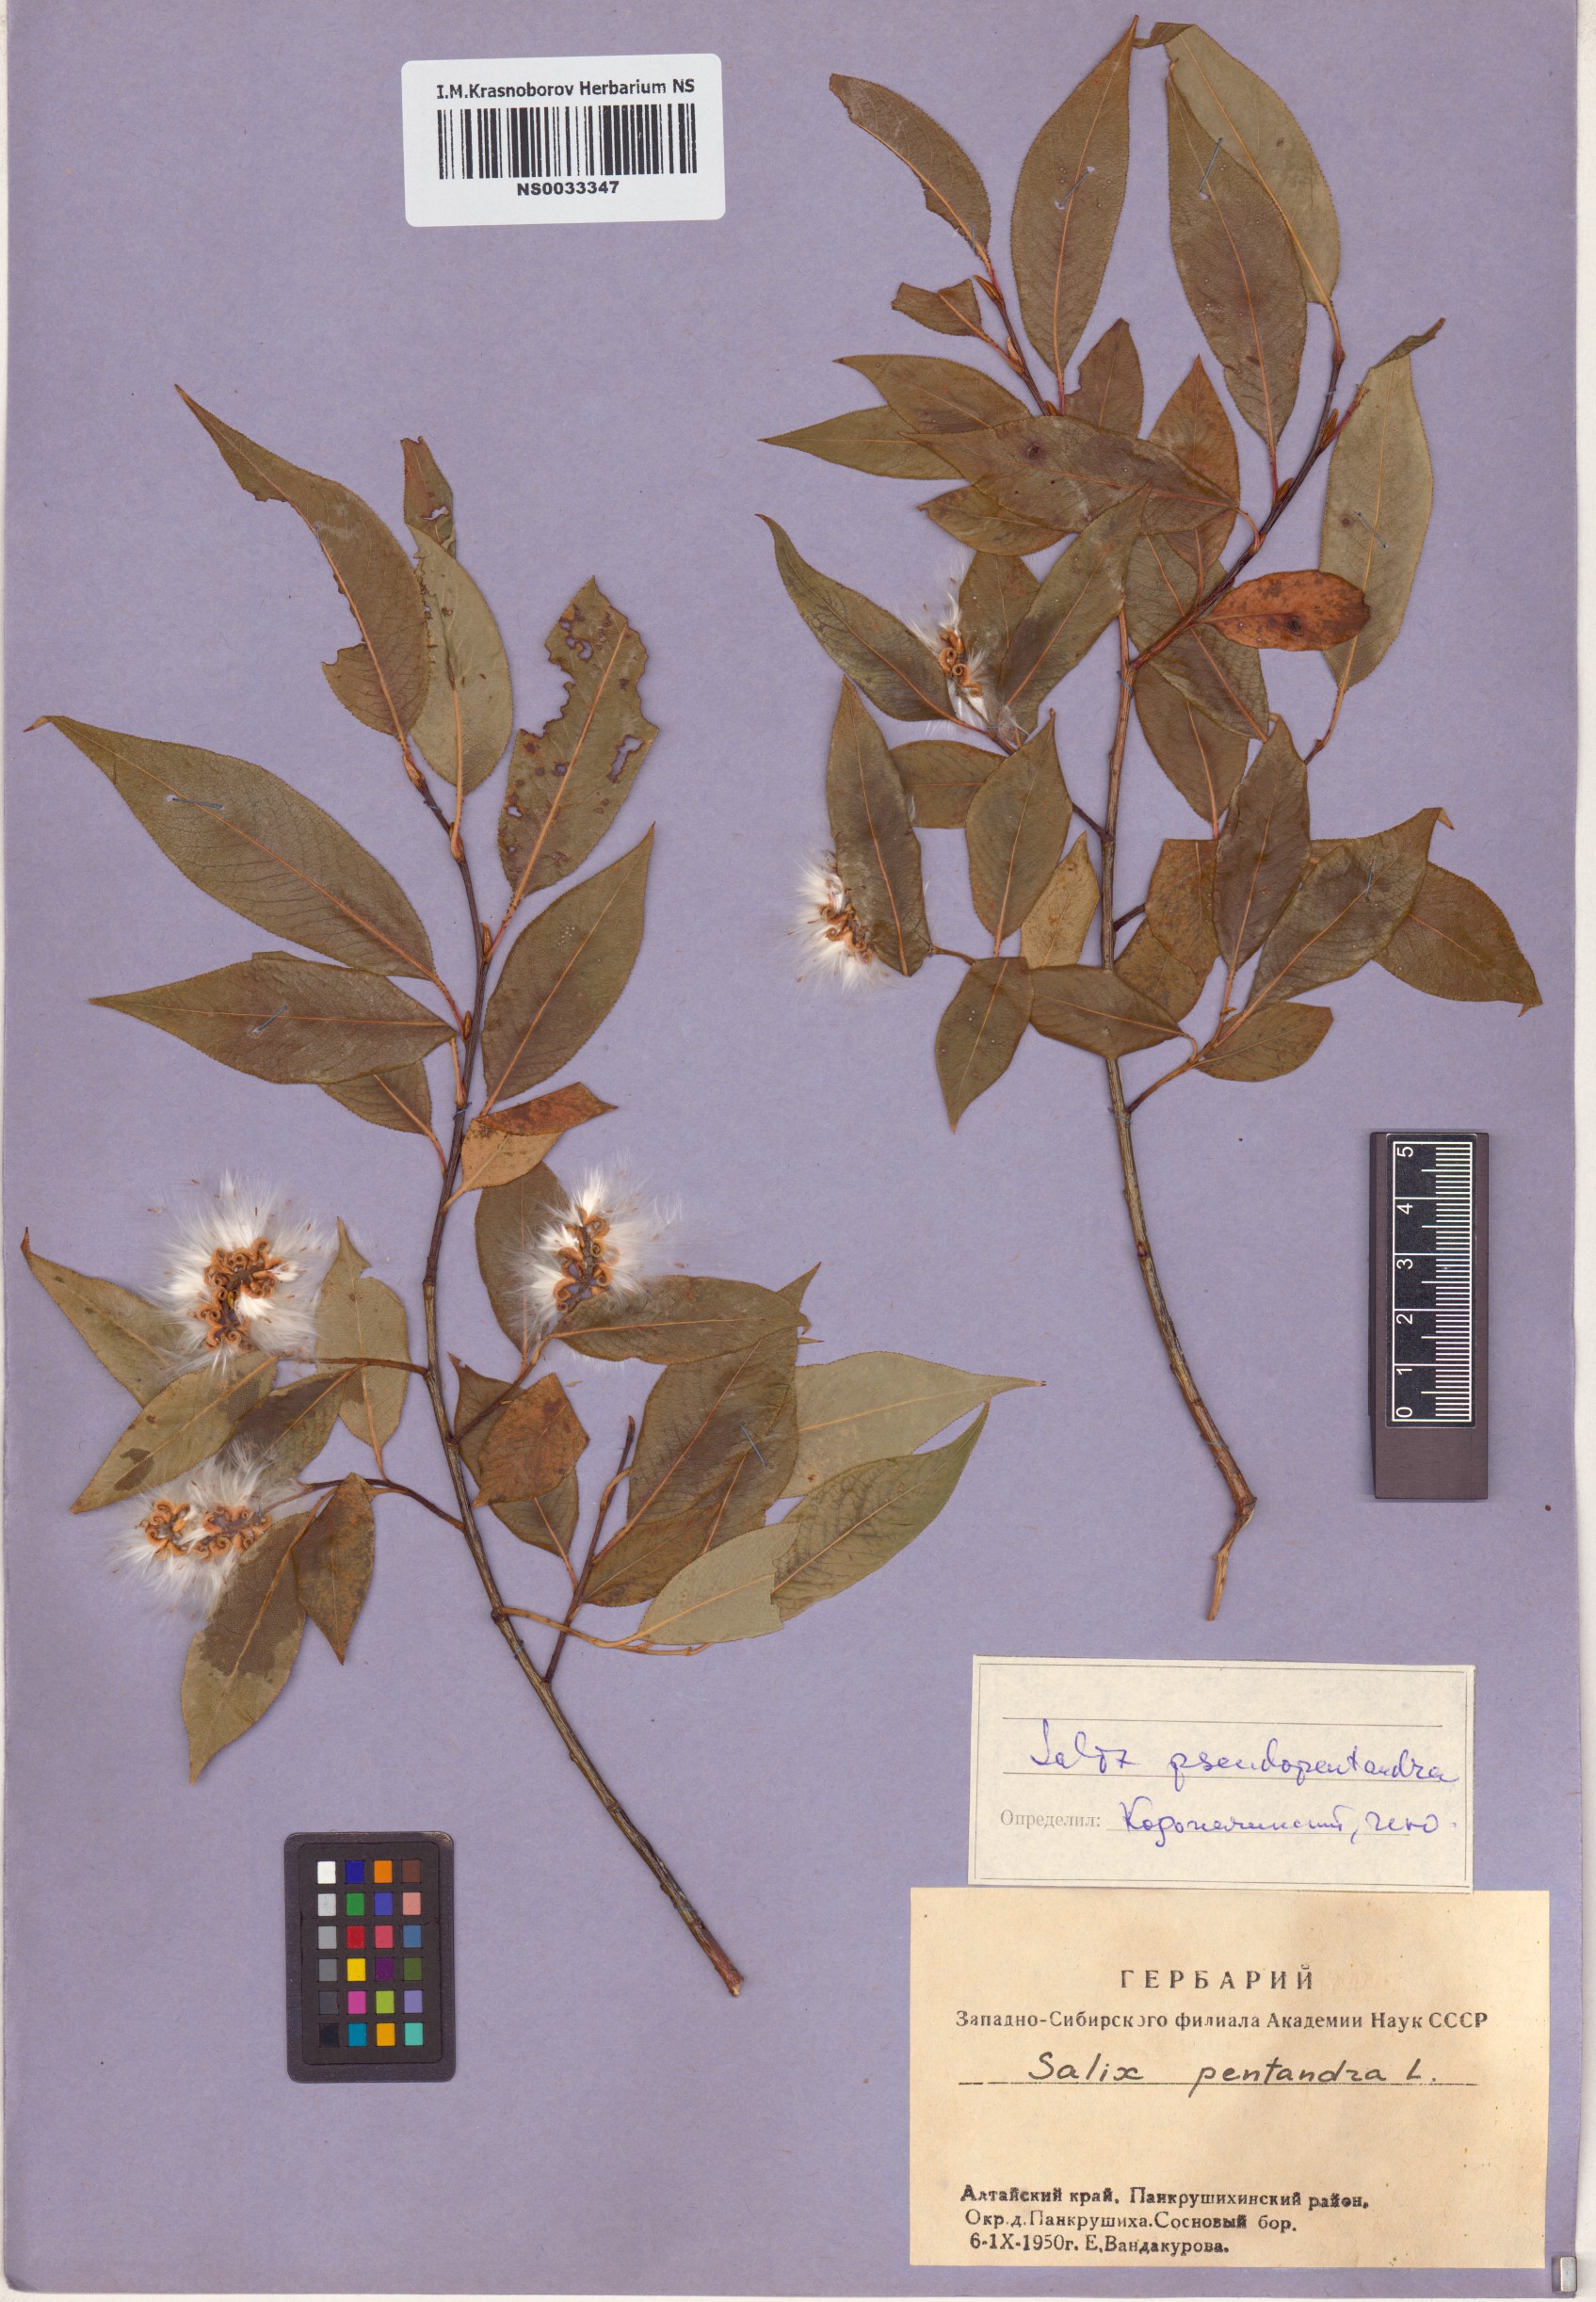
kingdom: Plantae
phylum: Tracheophyta
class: Magnoliopsida
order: Malpighiales
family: Salicaceae
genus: Salix
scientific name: Salix pseudopentandra
